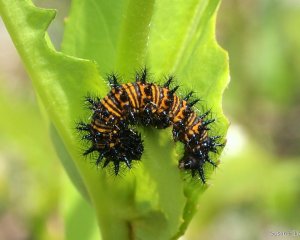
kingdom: Animalia
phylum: Arthropoda
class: Insecta
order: Lepidoptera
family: Nymphalidae
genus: Euphydryas
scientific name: Euphydryas phaeton
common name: Baltimore Checkerspot
